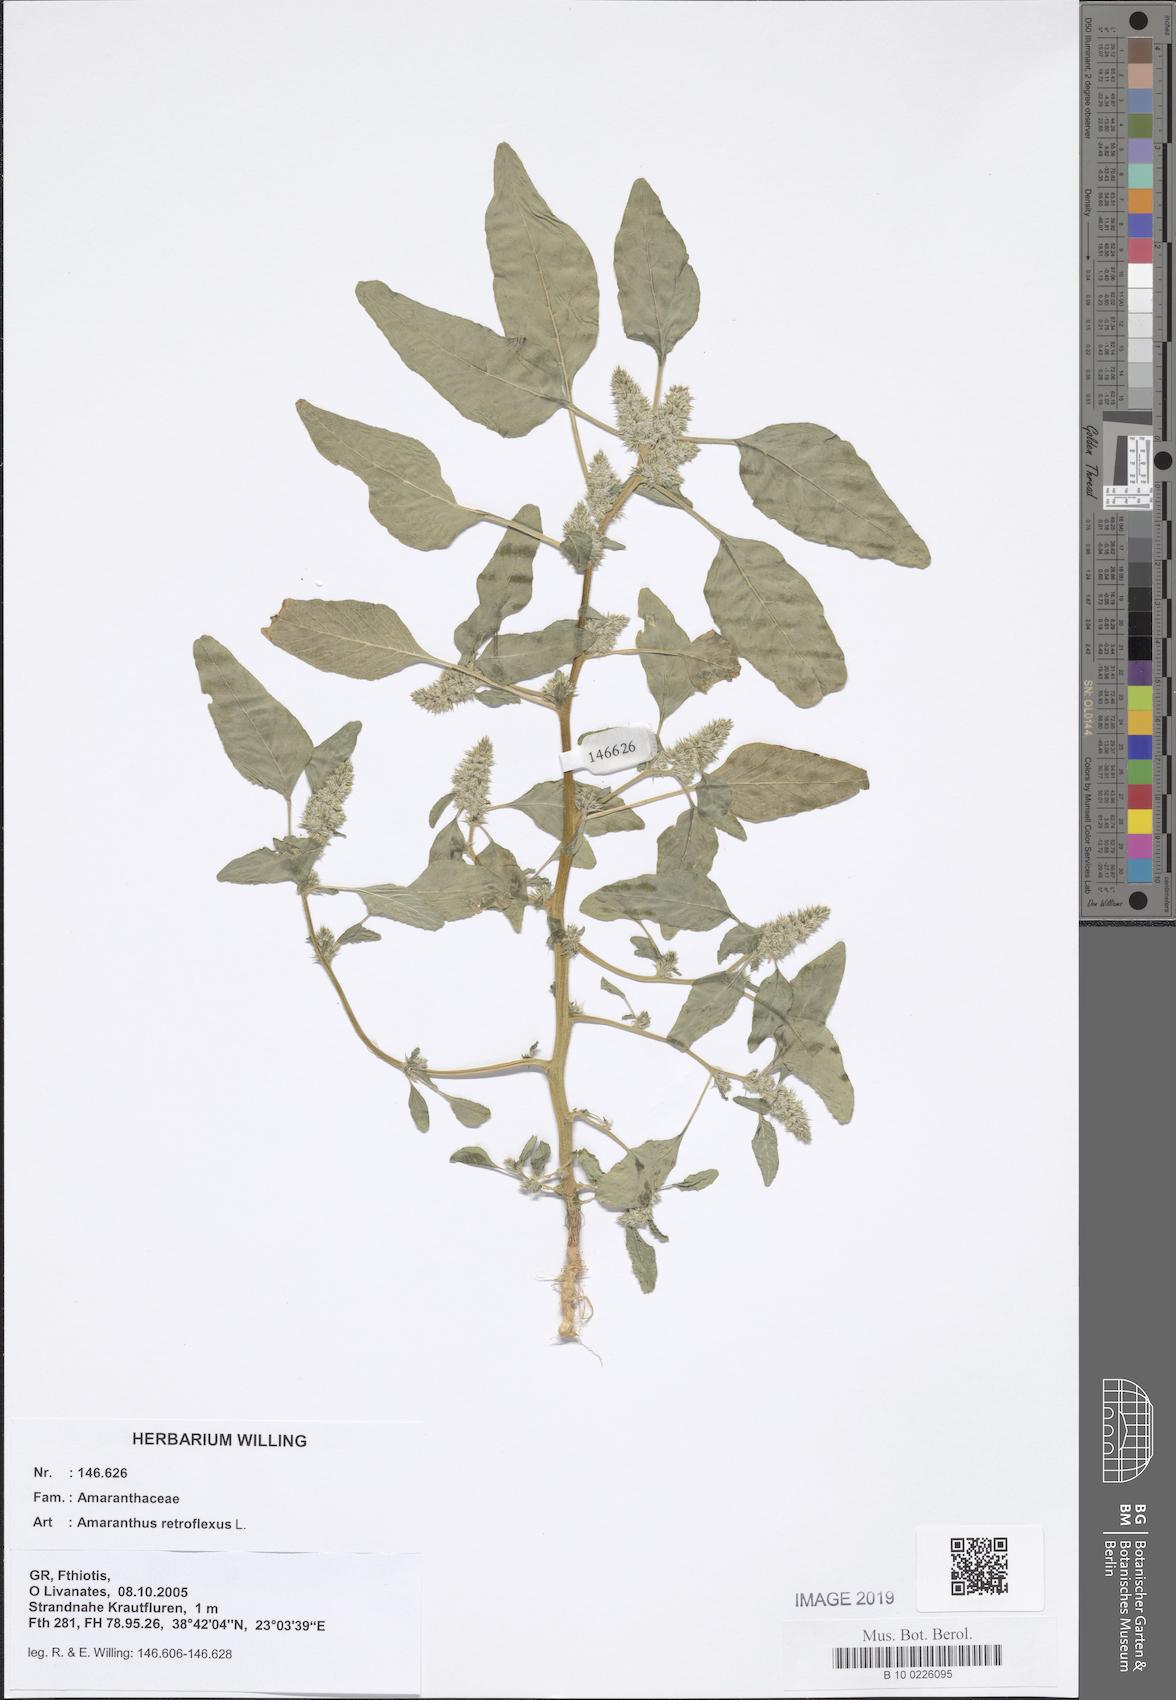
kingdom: Plantae
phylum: Tracheophyta
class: Magnoliopsida
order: Caryophyllales
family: Amaranthaceae
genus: Amaranthus
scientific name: Amaranthus retroflexus
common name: Redroot amaranth
